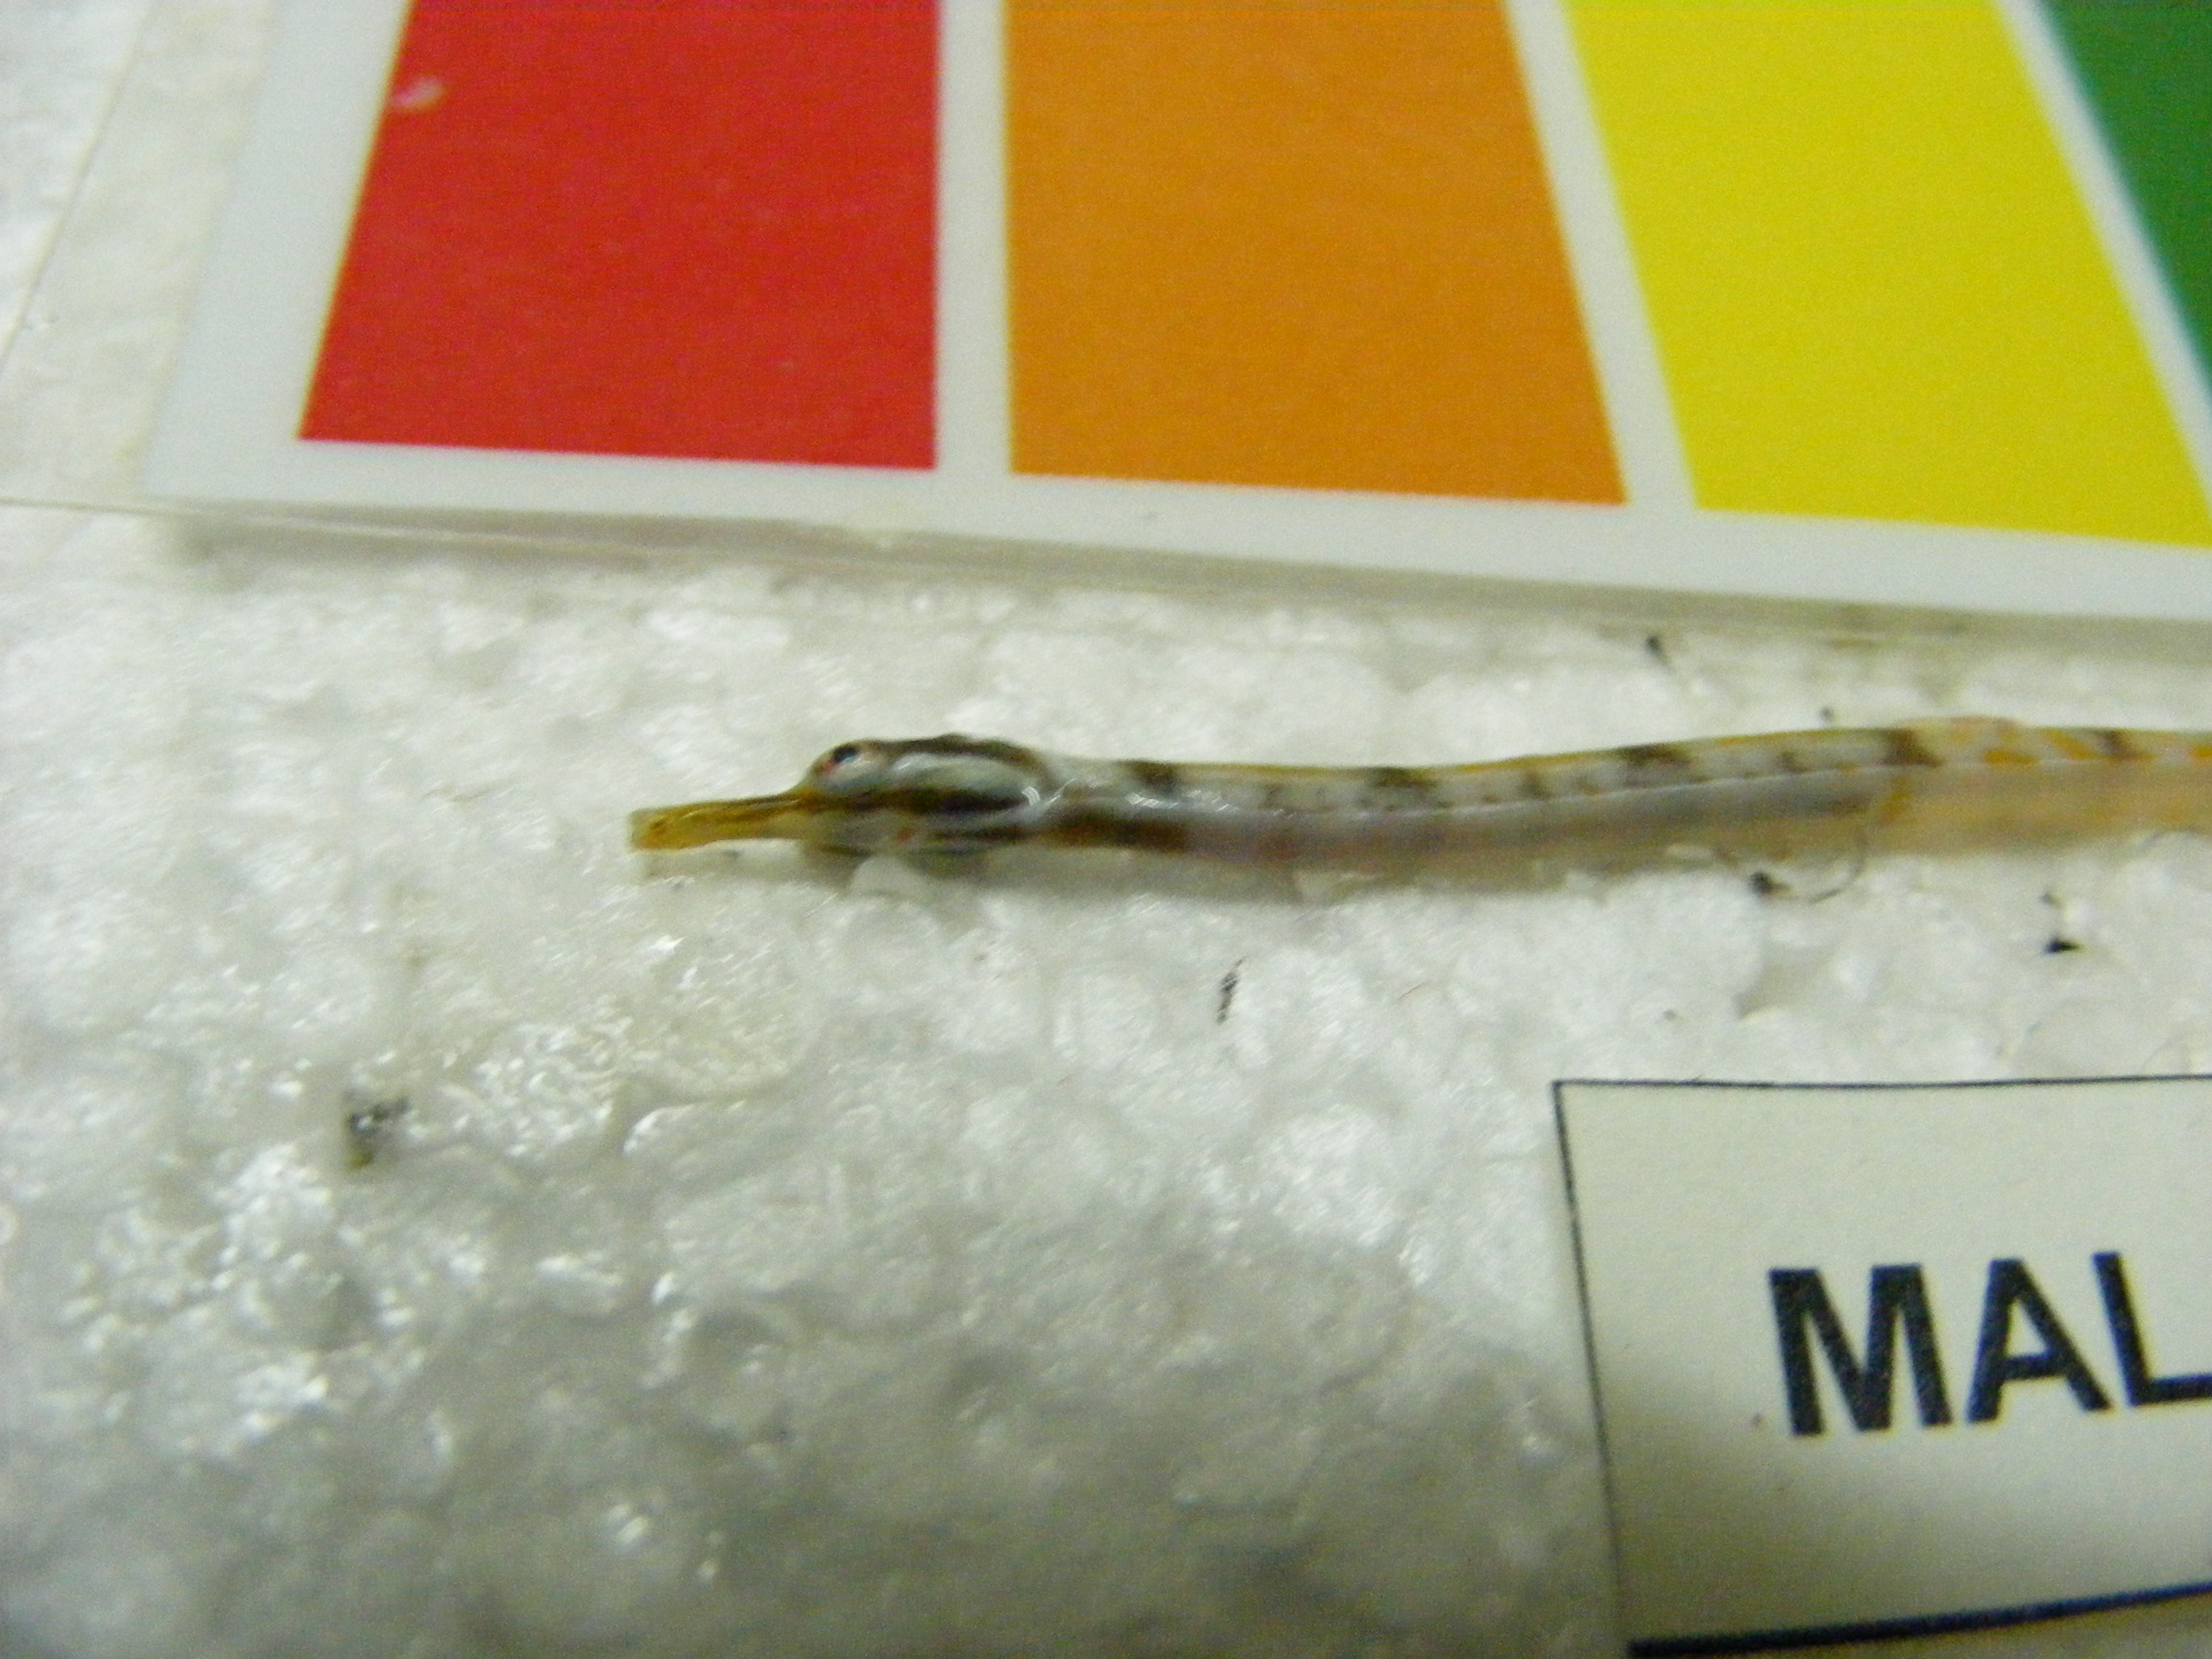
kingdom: Animalia
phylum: Chordata
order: Syngnathiformes
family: Syngnathidae
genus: Corythoichthys
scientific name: Corythoichthys
